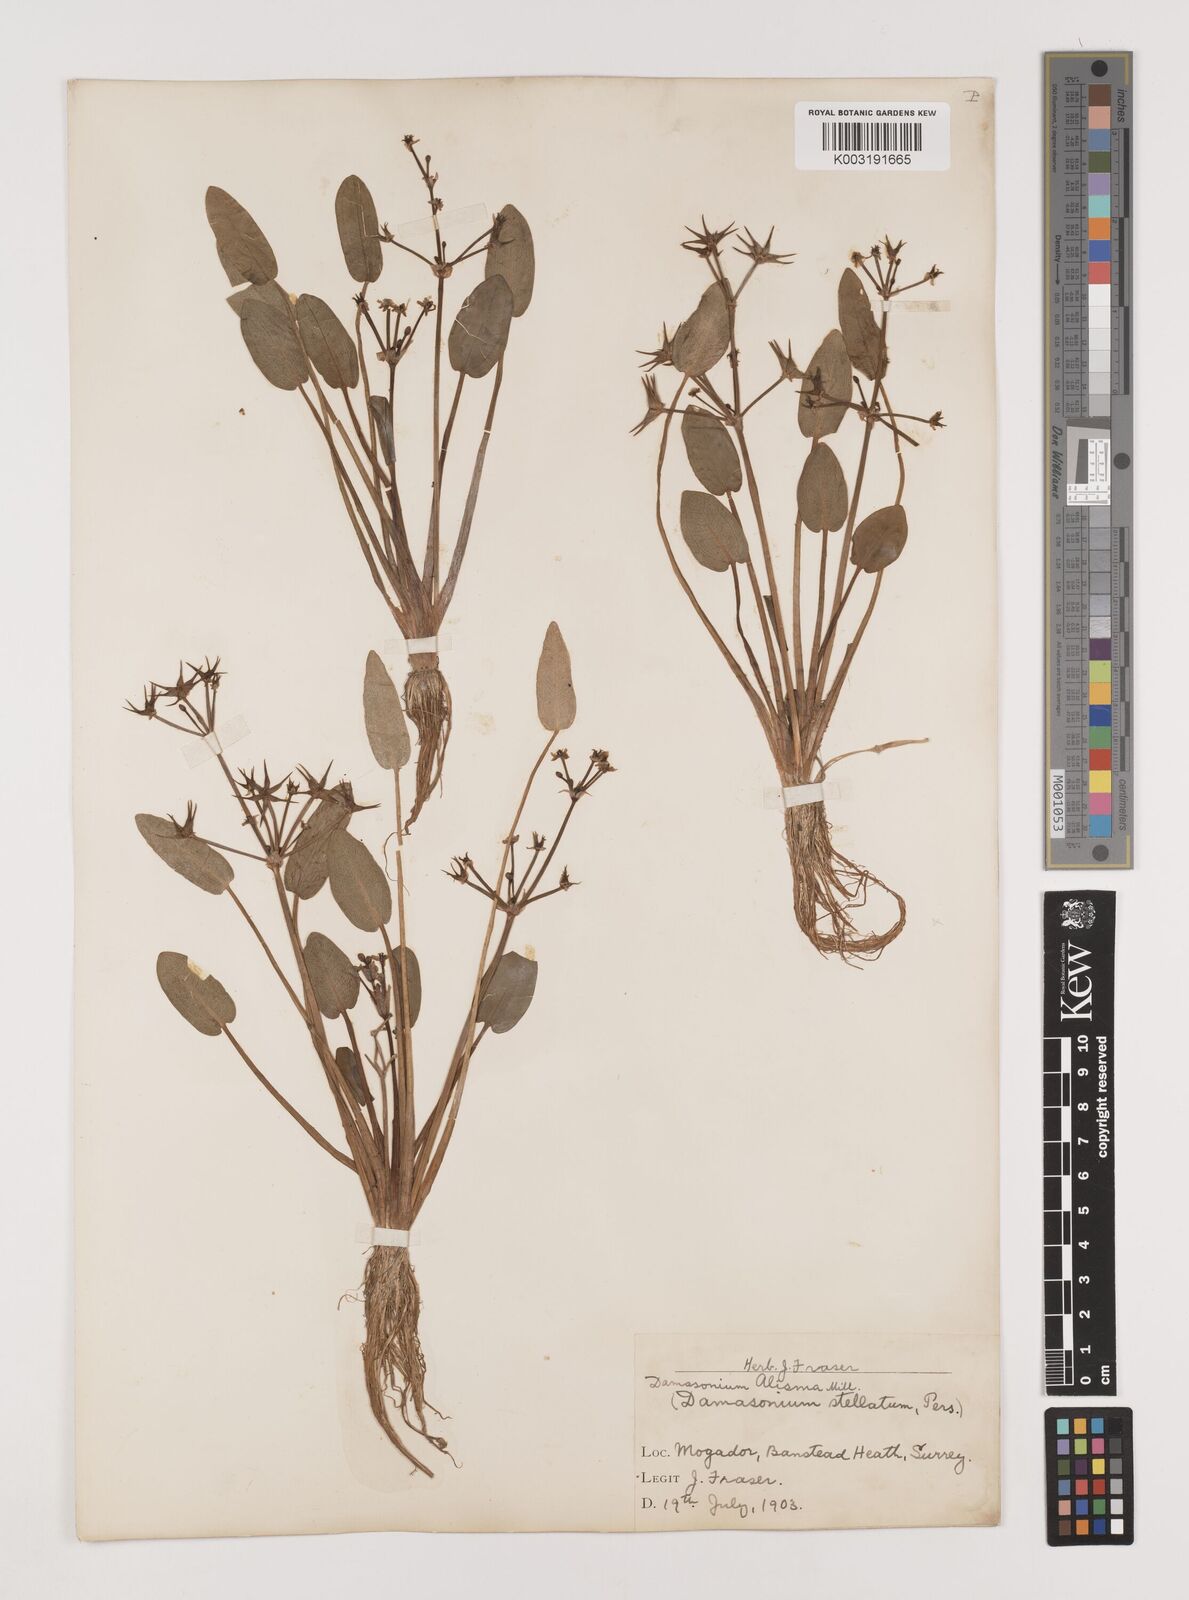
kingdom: Plantae
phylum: Tracheophyta
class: Liliopsida
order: Alismatales
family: Alismataceae
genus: Damasonium
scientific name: Damasonium alisma
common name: Starfruit
